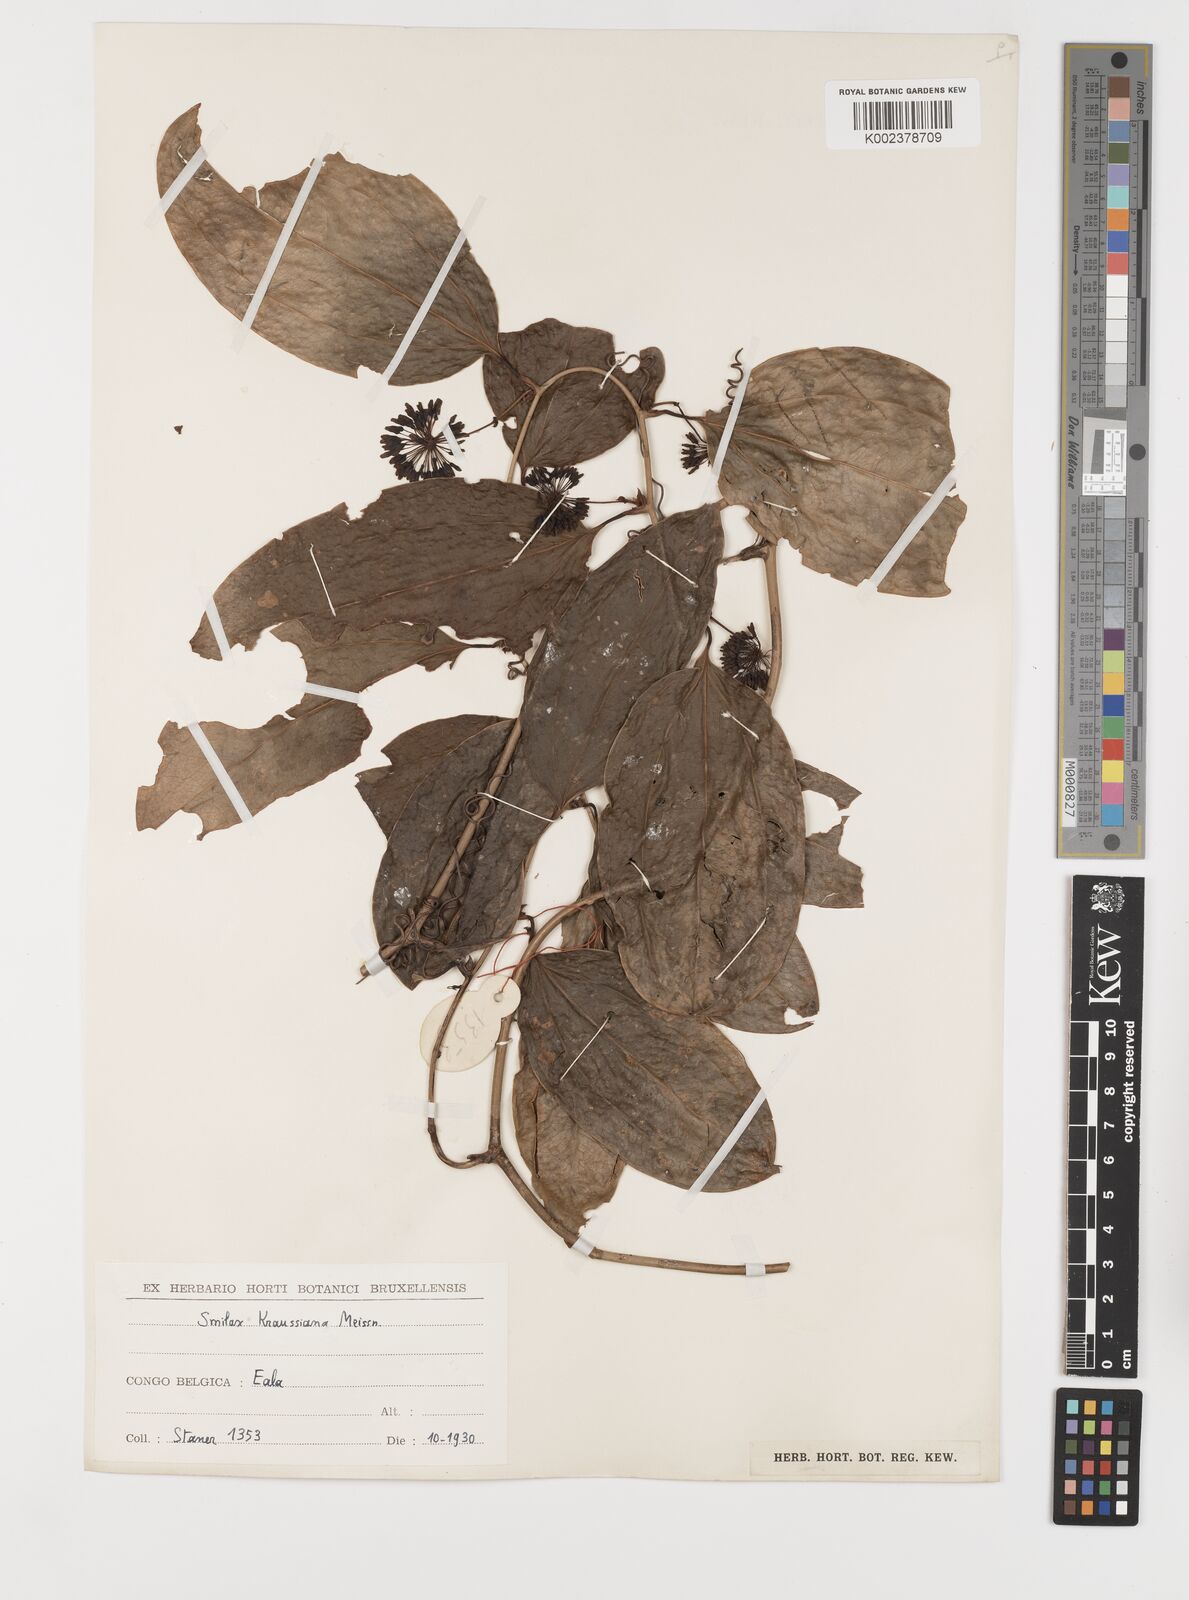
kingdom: Plantae
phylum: Tracheophyta
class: Liliopsida
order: Liliales
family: Smilacaceae
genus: Smilax
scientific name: Smilax anceps
